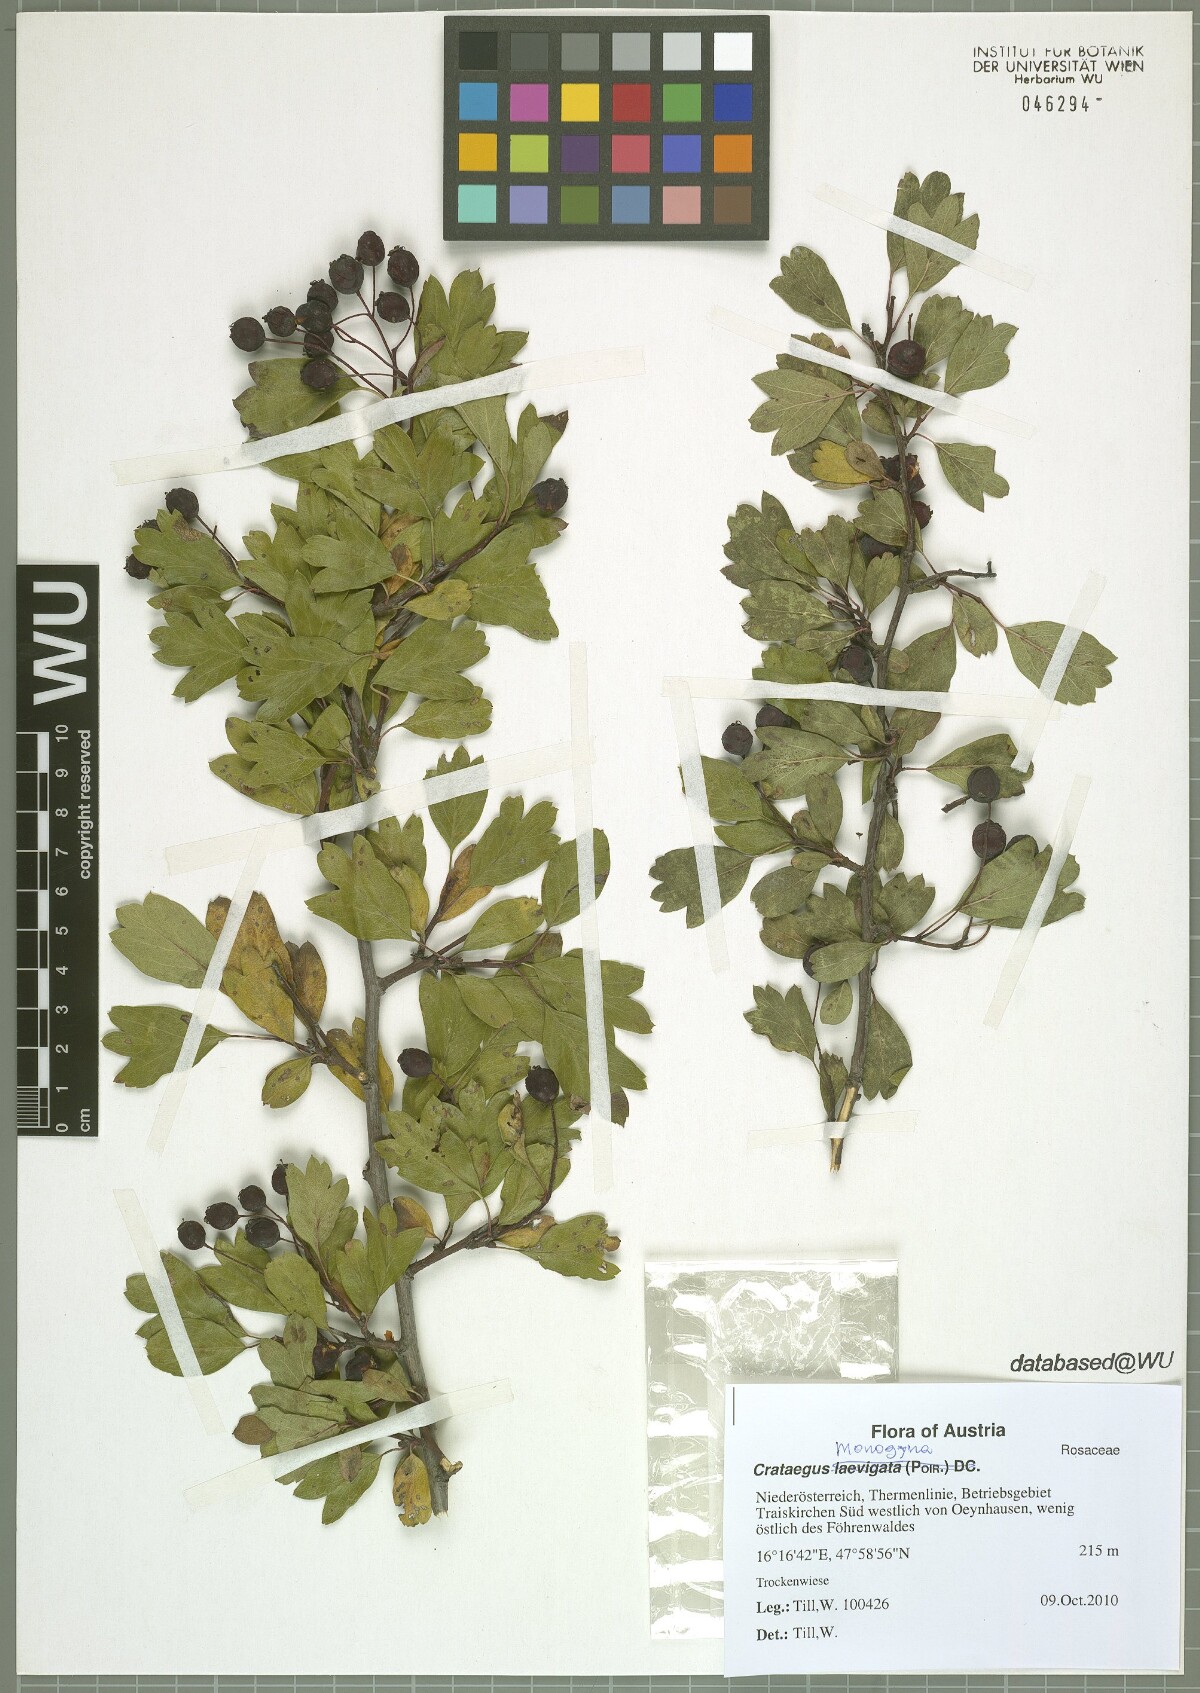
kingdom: Plantae
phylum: Tracheophyta
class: Magnoliopsida
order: Rosales
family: Rosaceae
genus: Crataegus
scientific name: Crataegus monogyna
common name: Hawthorn
